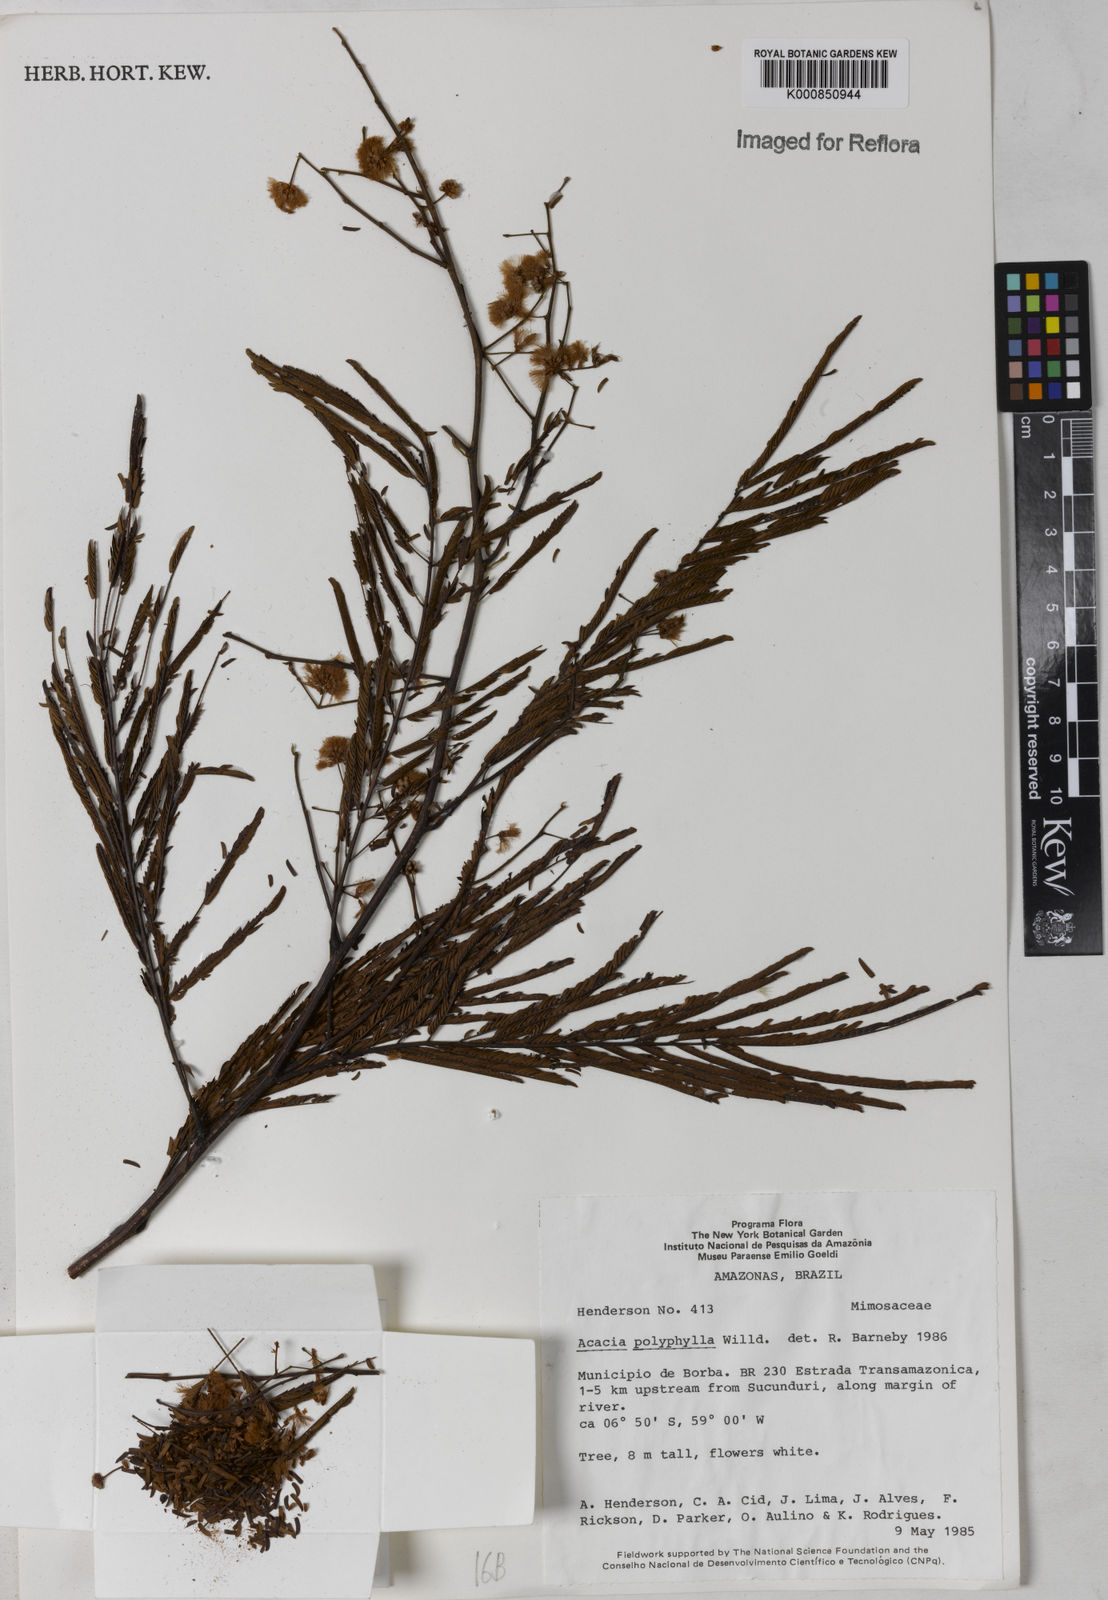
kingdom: Plantae
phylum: Tracheophyta
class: Magnoliopsida
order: Fabales
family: Fabaceae
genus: Senegalia
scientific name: Senegalia polyphylla
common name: White-tamarind
